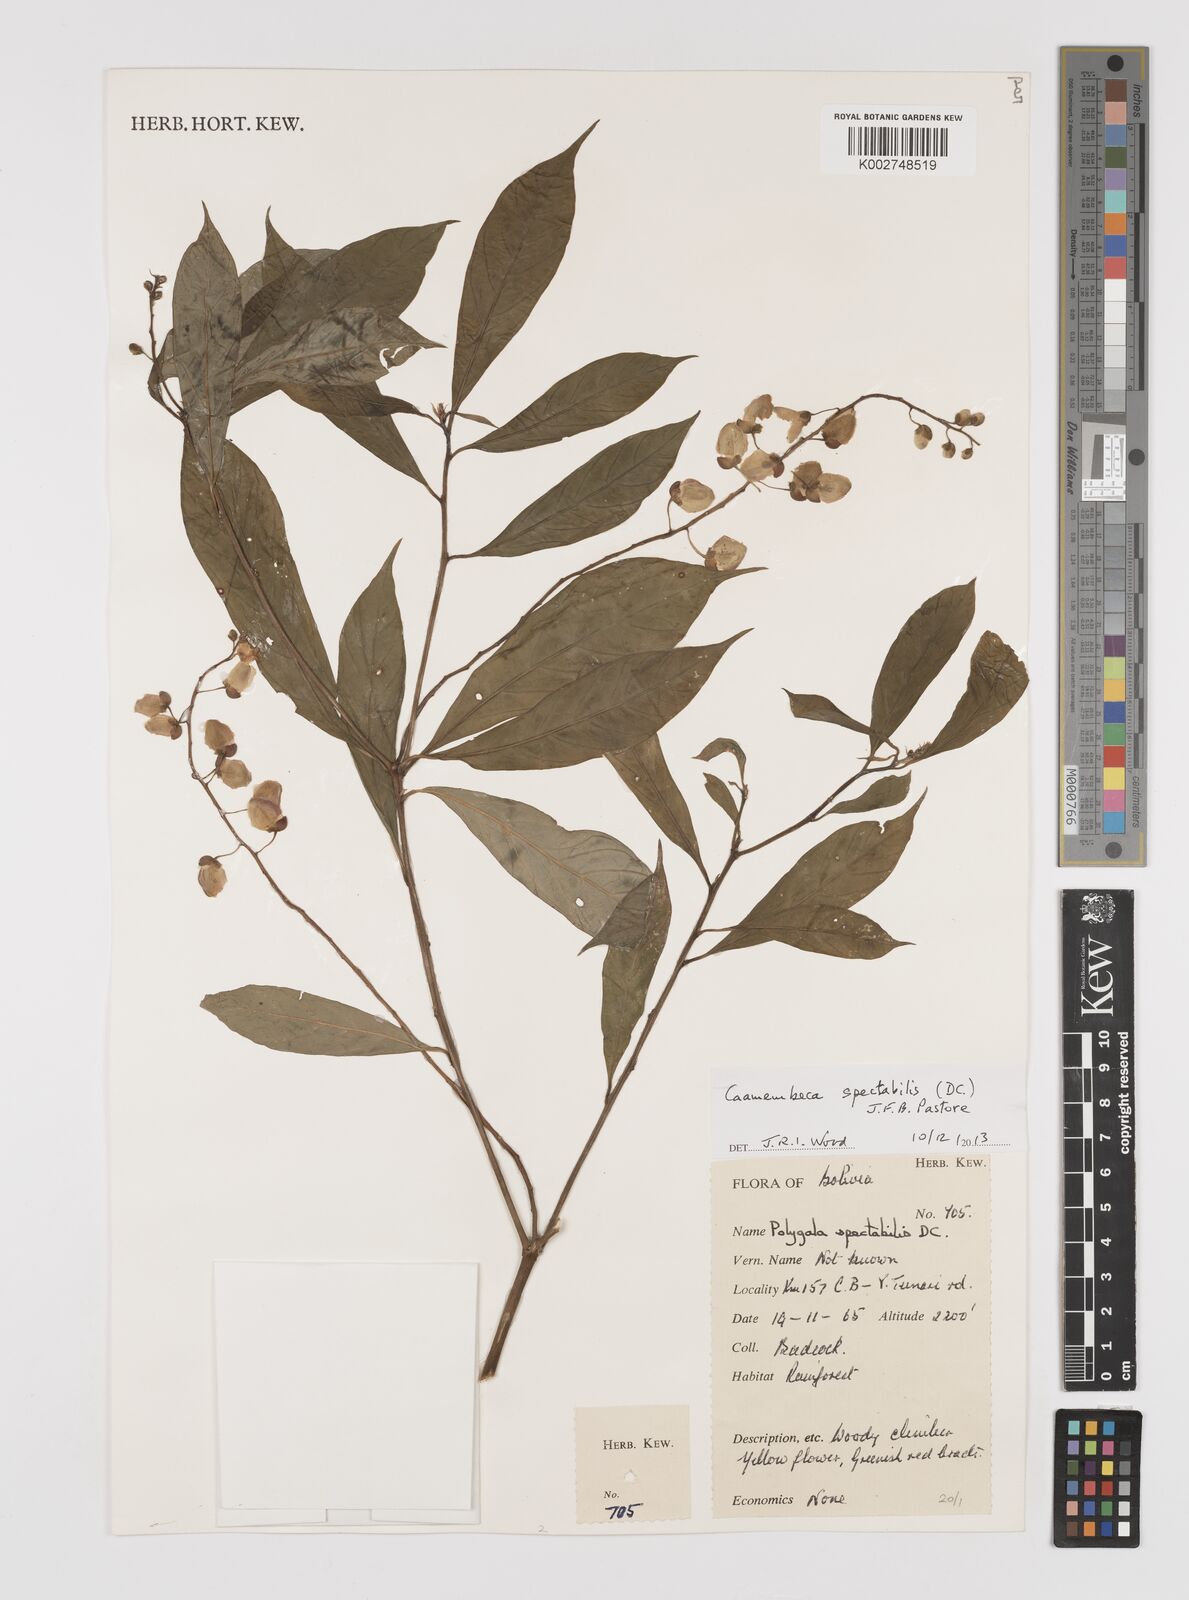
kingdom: Plantae
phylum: Tracheophyta
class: Magnoliopsida
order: Fabales
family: Polygalaceae
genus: Caamembeca
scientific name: Caamembeca spectabilis
